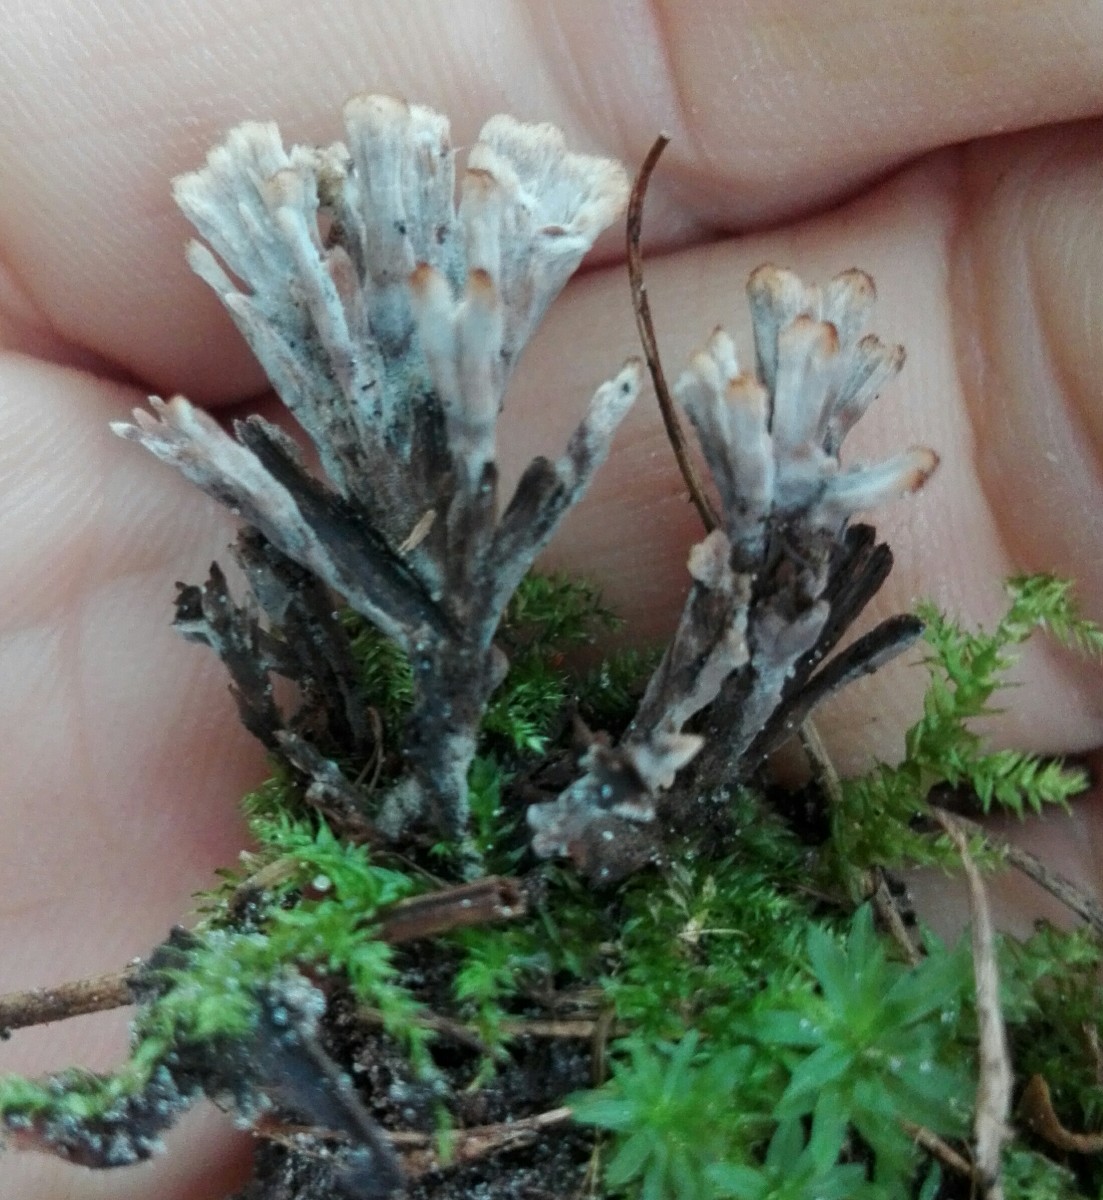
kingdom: Fungi
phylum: Basidiomycota
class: Agaricomycetes
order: Thelephorales
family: Thelephoraceae
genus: Thelephora
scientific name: Thelephora anthocephala
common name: busk-frynsesvamp
